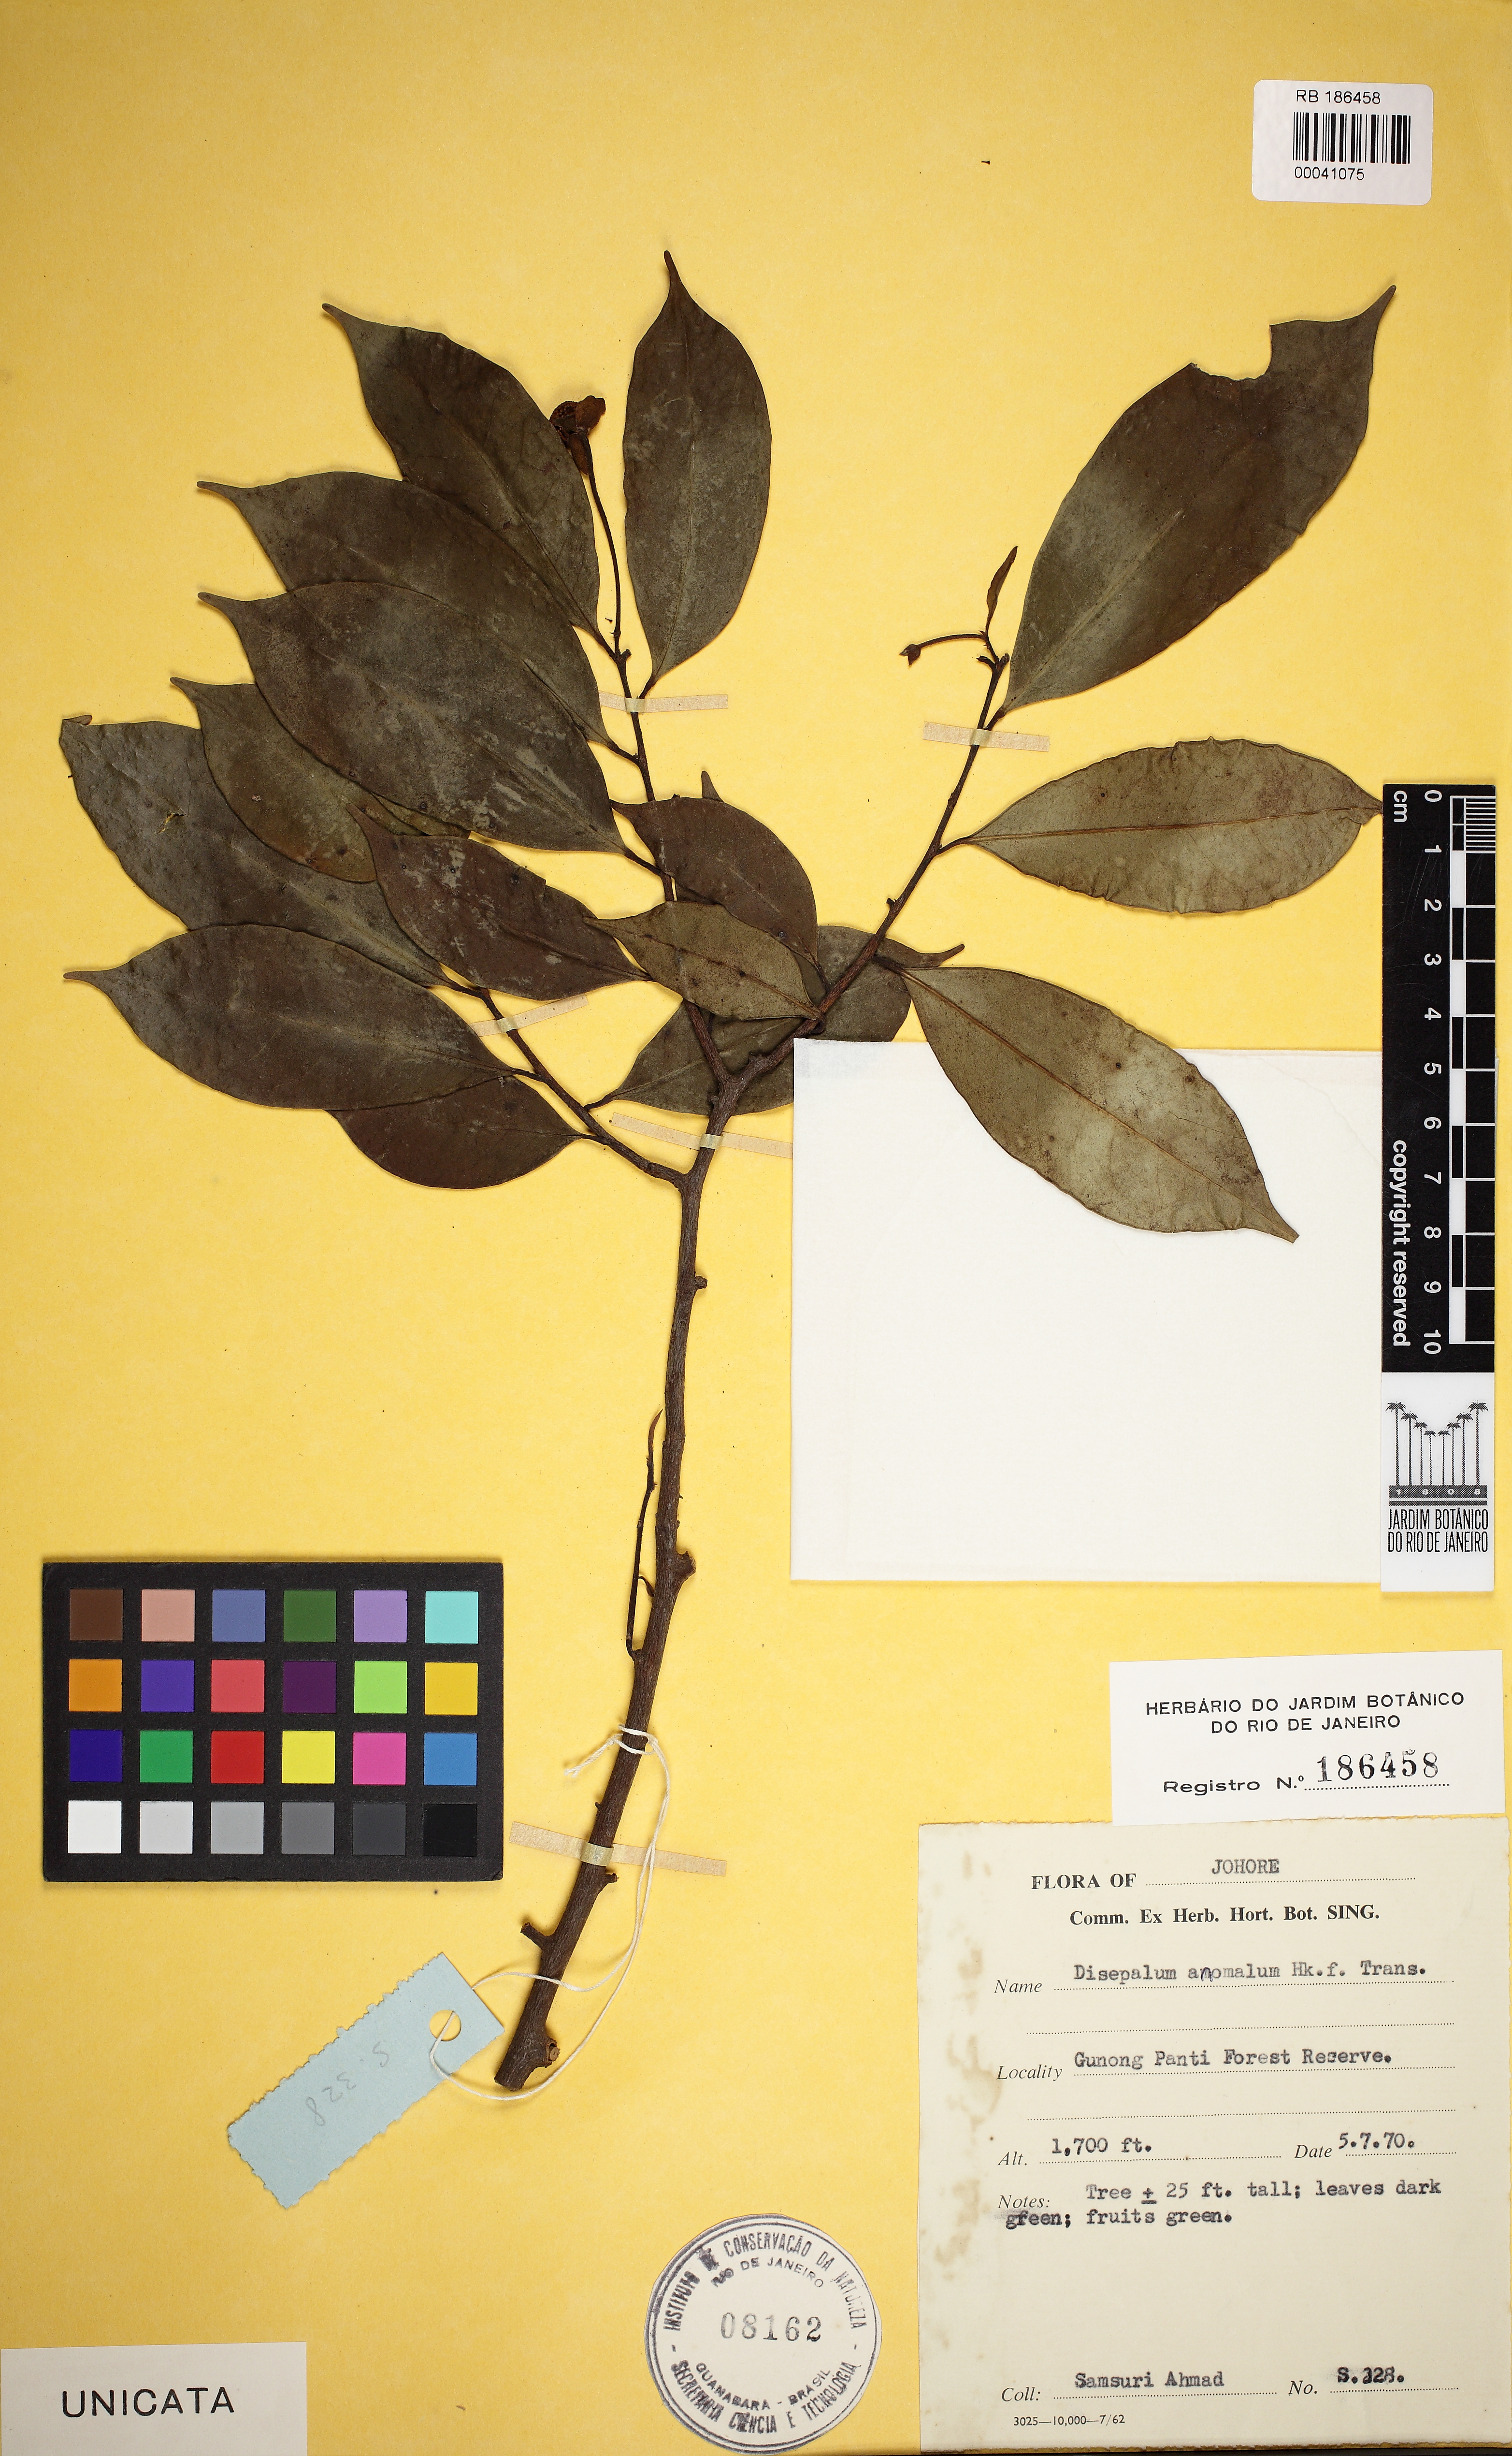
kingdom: Plantae
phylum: Tracheophyta
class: Magnoliopsida
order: Magnoliales
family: Annonaceae
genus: Disepalum
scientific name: Disepalum anomalum
